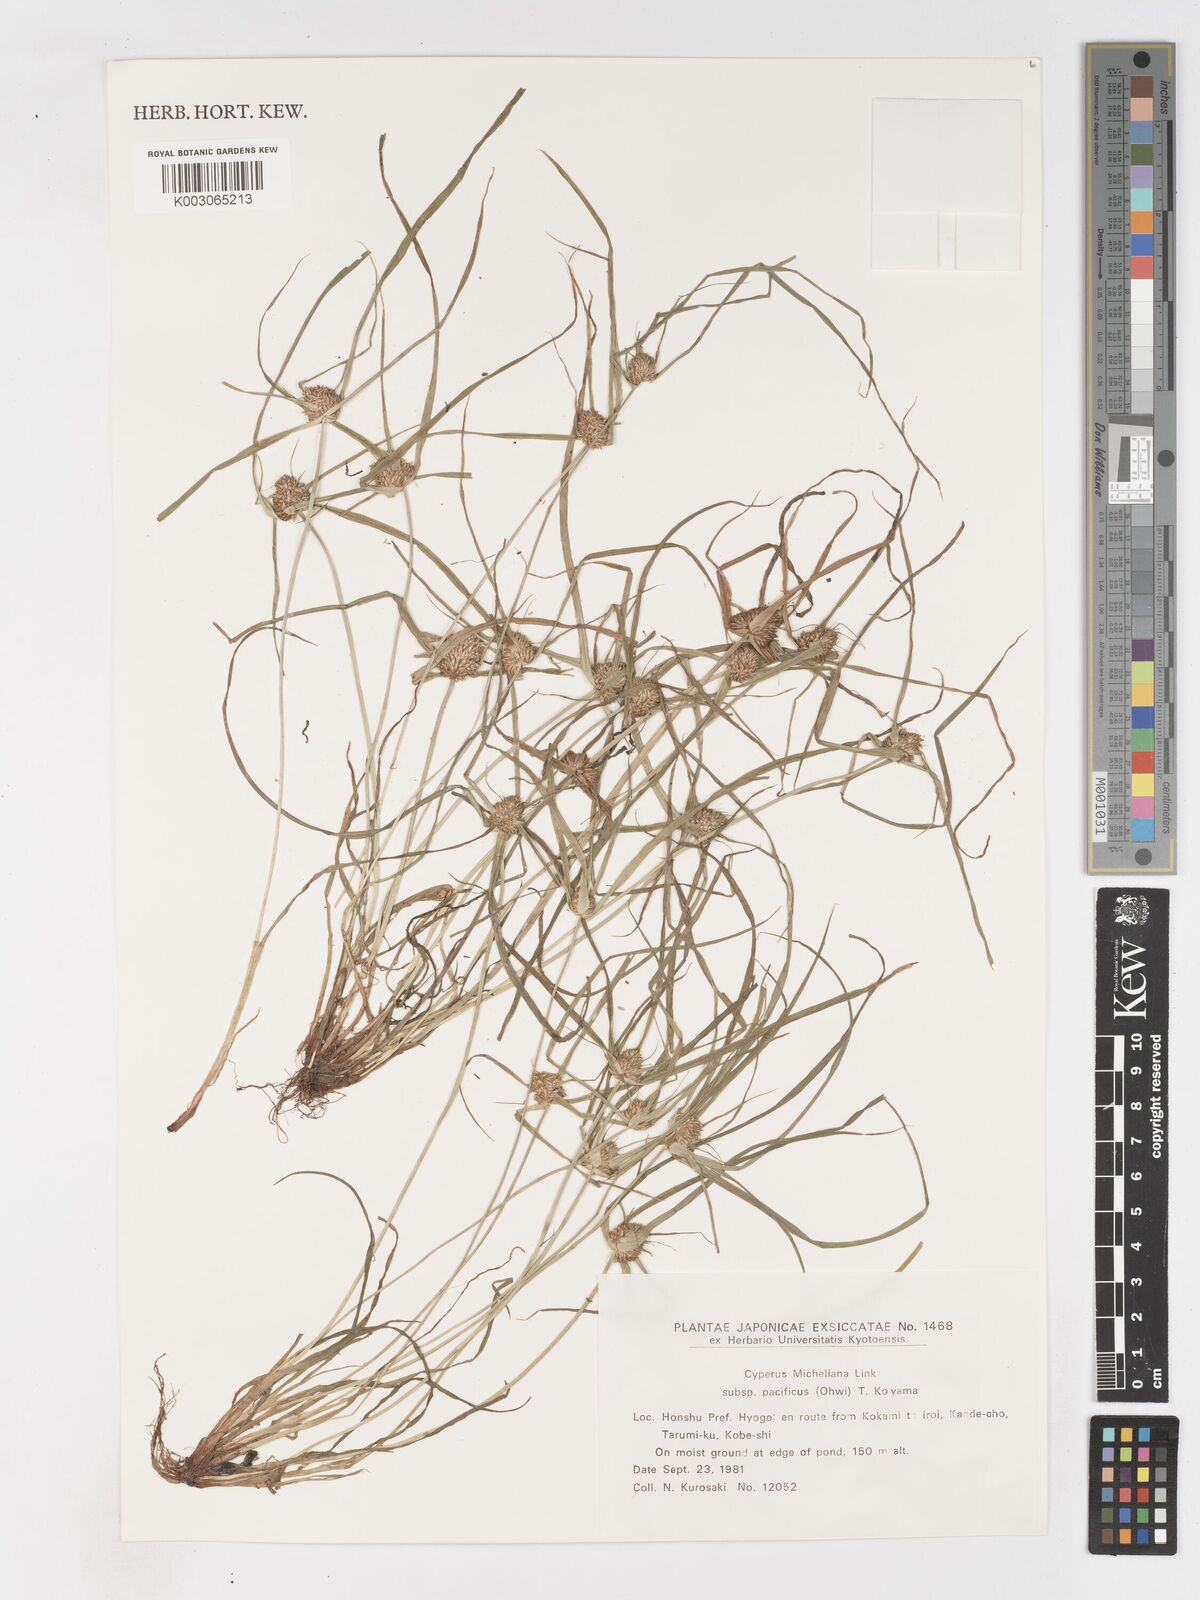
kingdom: Plantae
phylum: Tracheophyta
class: Liliopsida
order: Poales
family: Cyperaceae
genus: Cyperus
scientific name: Cyperus michelianus
